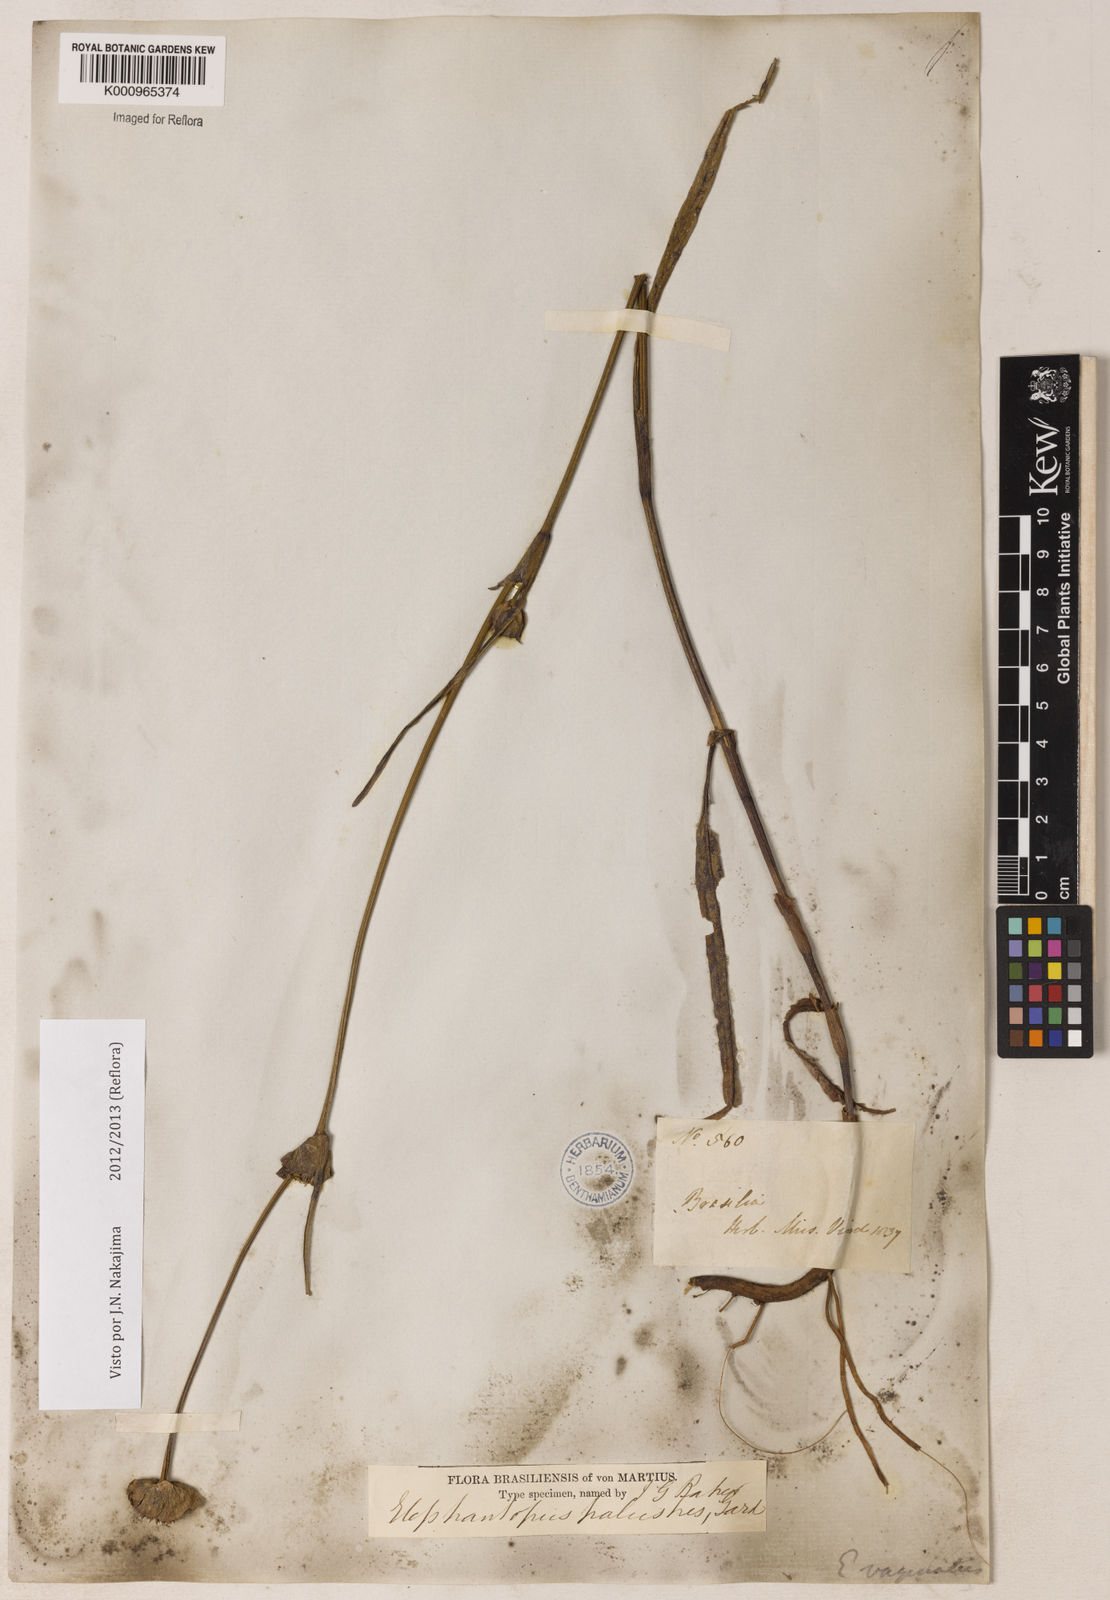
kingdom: Plantae
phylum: Tracheophyta
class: Magnoliopsida
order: Asterales
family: Asteraceae
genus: Elephantopus
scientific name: Elephantopus palustris
